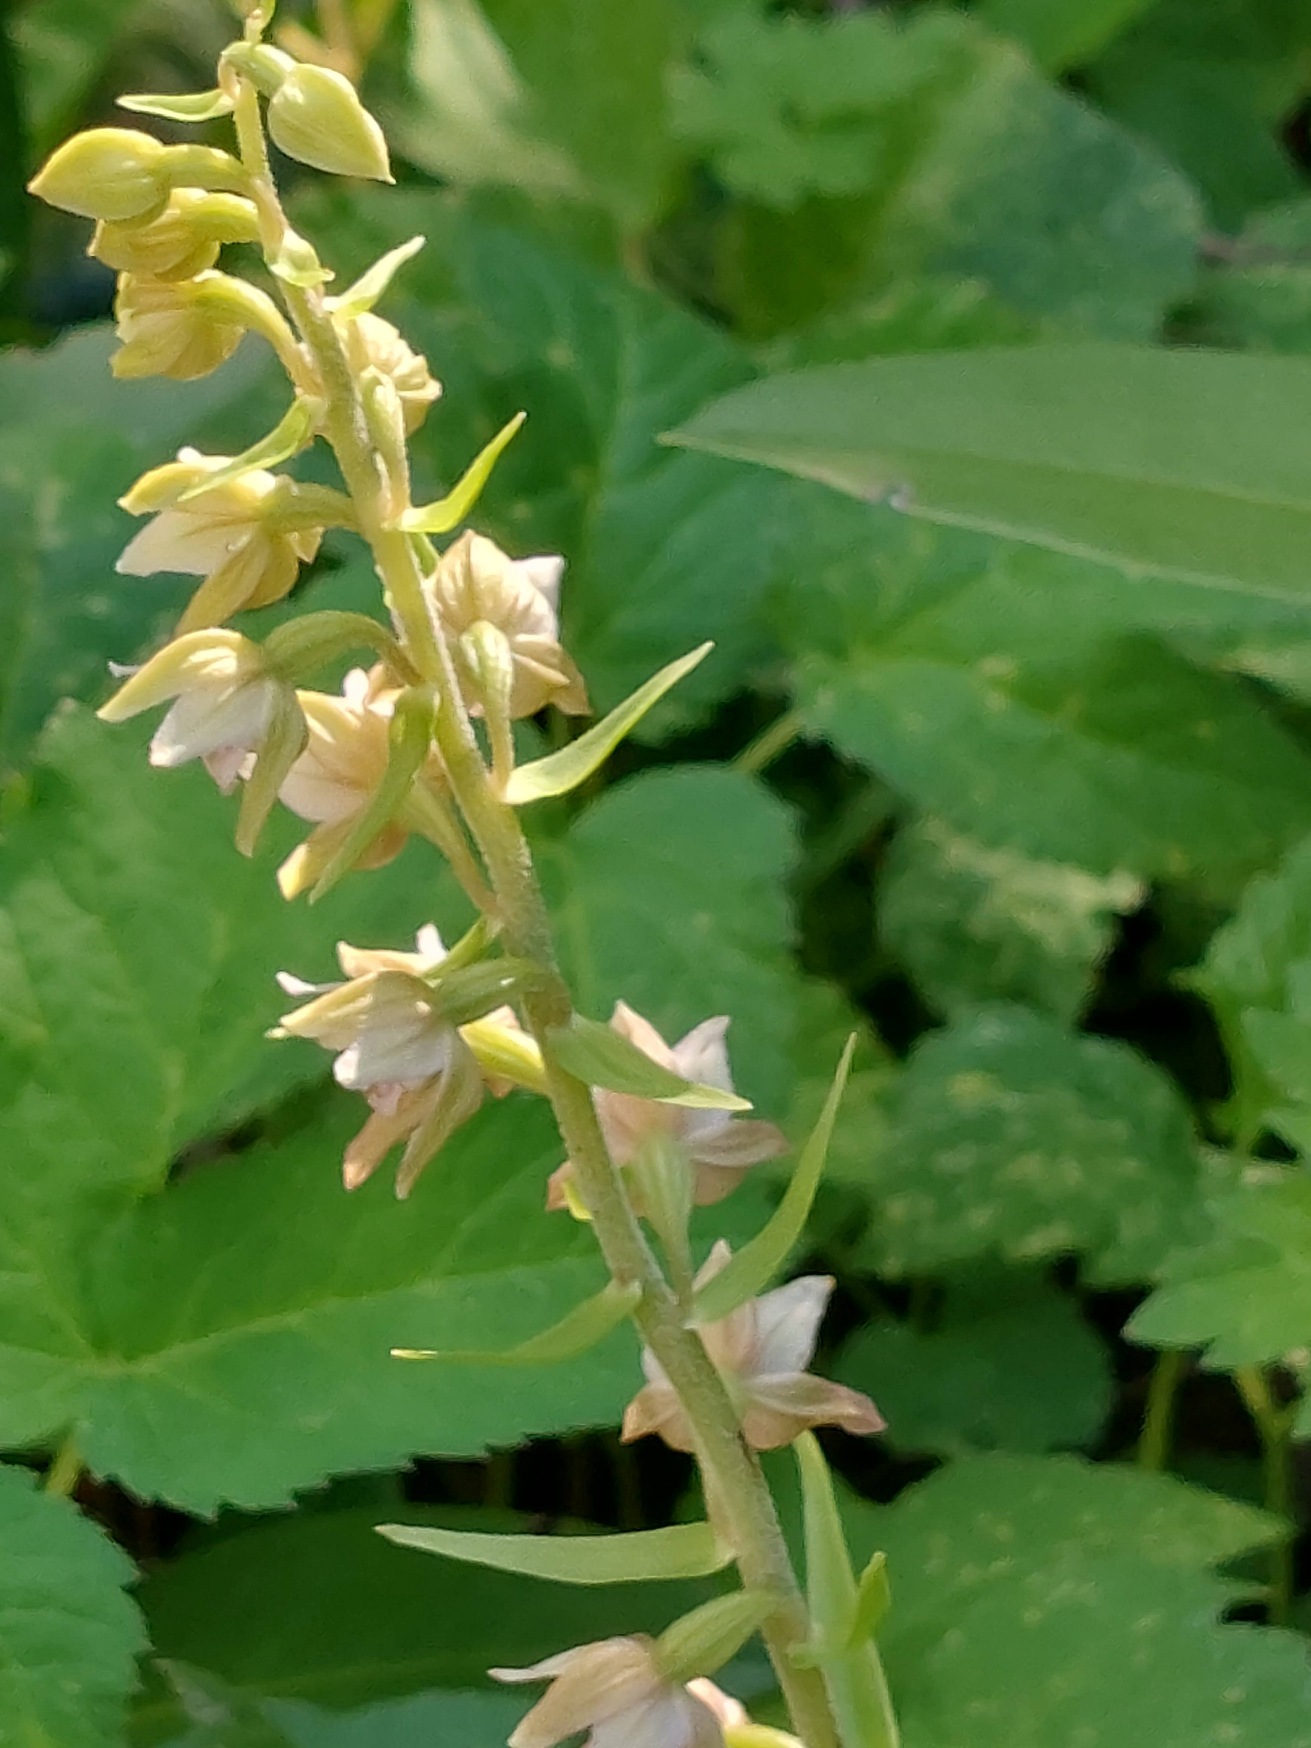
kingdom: Plantae
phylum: Tracheophyta
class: Liliopsida
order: Asparagales
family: Orchidaceae
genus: Epipactis
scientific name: Epipactis helleborine
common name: Skov-hullæbe
